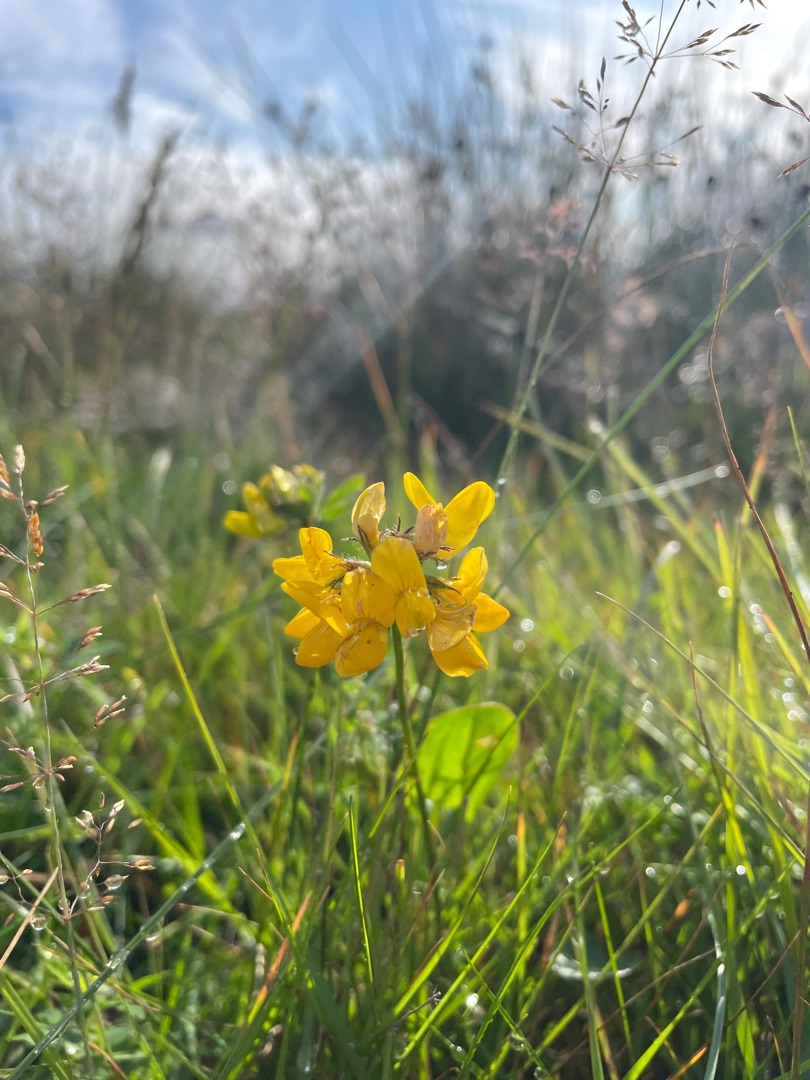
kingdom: Plantae
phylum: Tracheophyta
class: Magnoliopsida
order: Fabales
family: Fabaceae
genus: Lotus
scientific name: Lotus pedunculatus
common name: Sump-kællingetand
